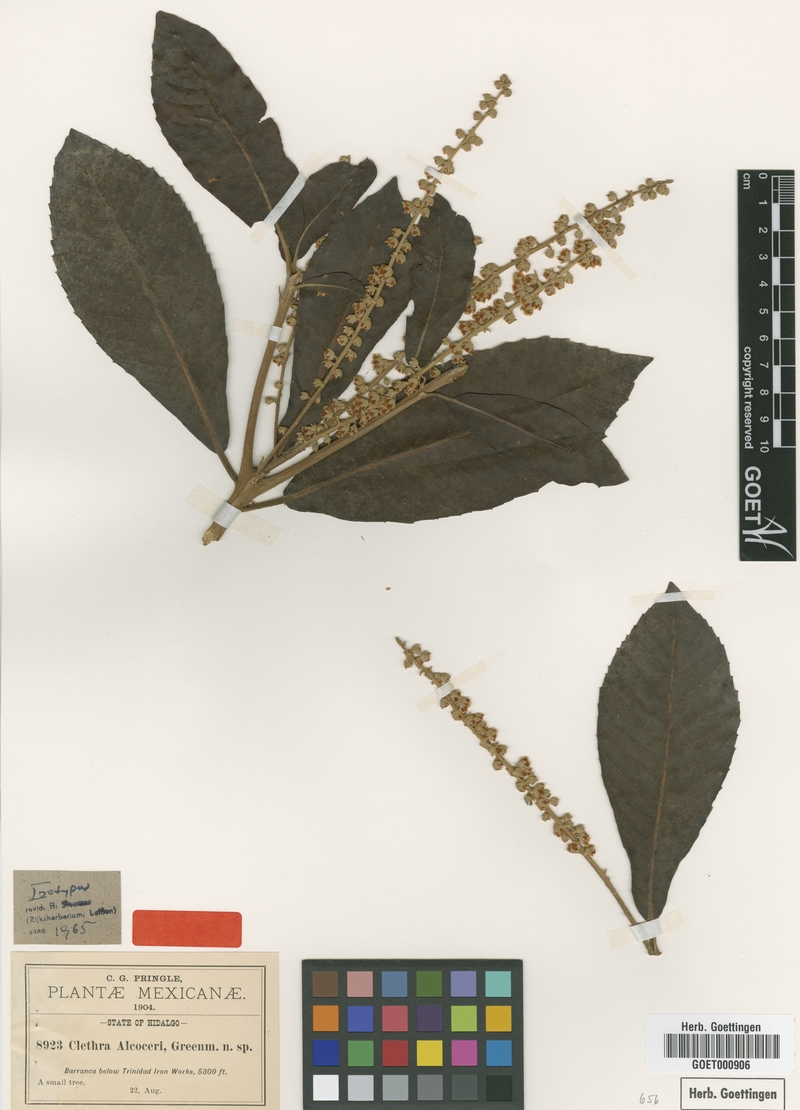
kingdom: Plantae
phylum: Tracheophyta
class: Magnoliopsida
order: Ericales
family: Clethraceae
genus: Clethra
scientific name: Clethra alcoceri
